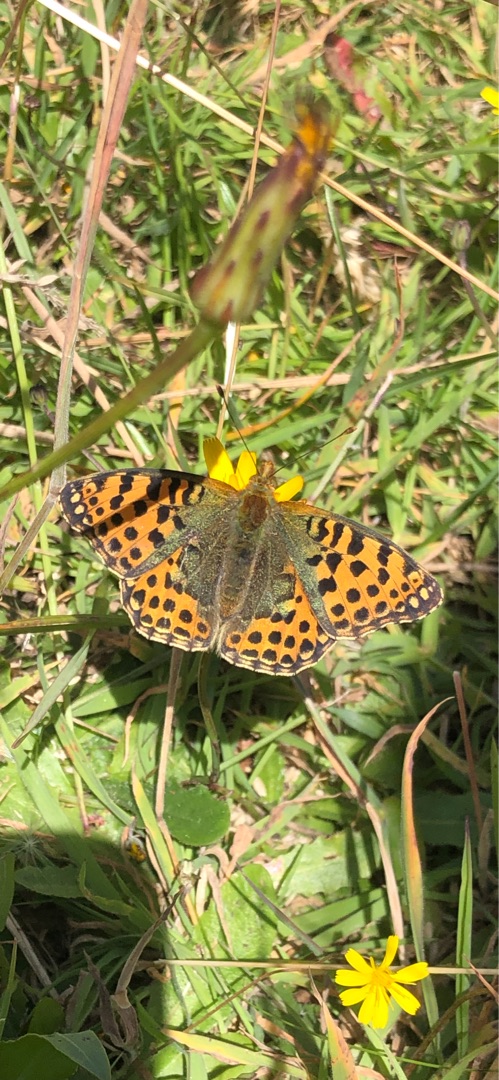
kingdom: Animalia
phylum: Arthropoda
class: Insecta
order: Lepidoptera
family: Nymphalidae
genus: Issoria
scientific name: Issoria lathonia
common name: Storplettet perlemorsommerfugl
